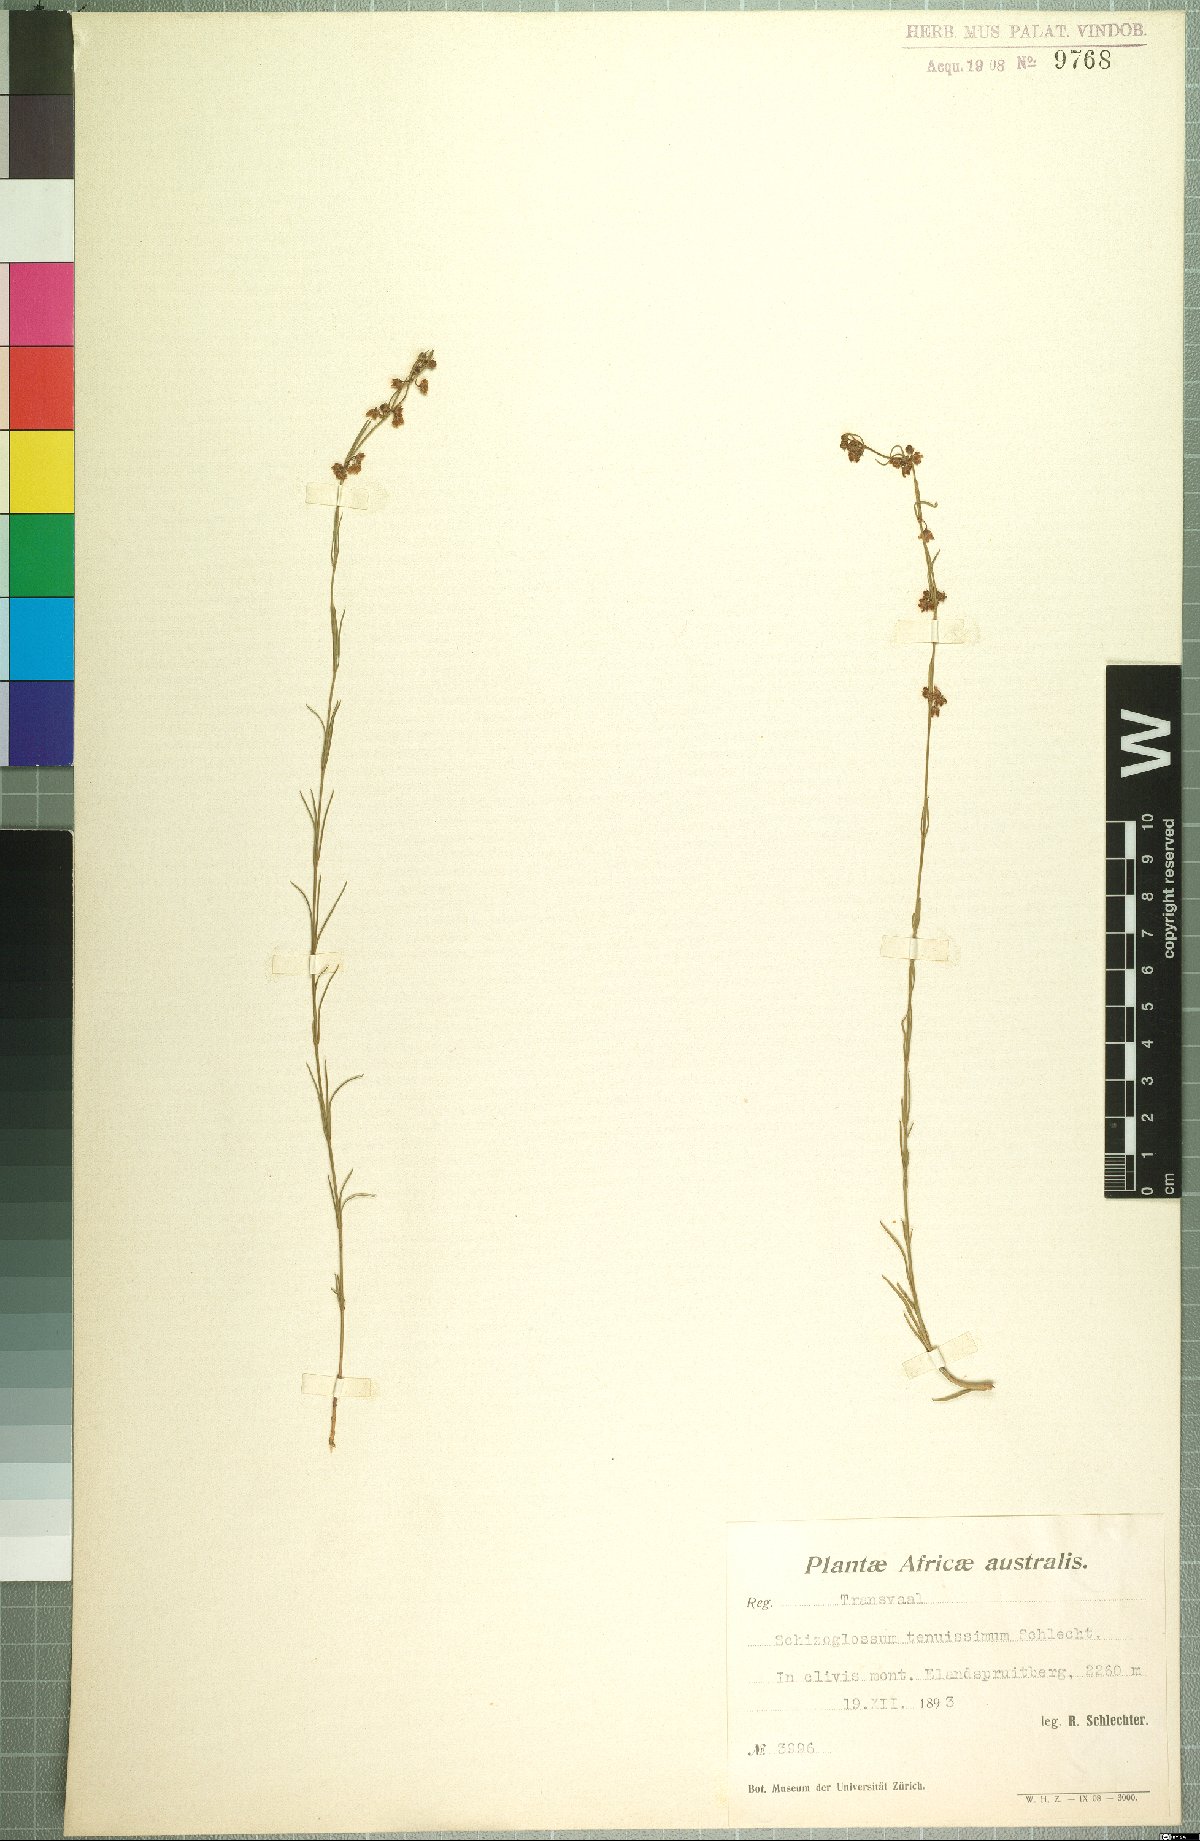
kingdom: Plantae
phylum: Tracheophyta
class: Magnoliopsida
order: Gentianales
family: Apocynaceae
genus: Aspidoglossum
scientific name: Aspidoglossum glabrescens
